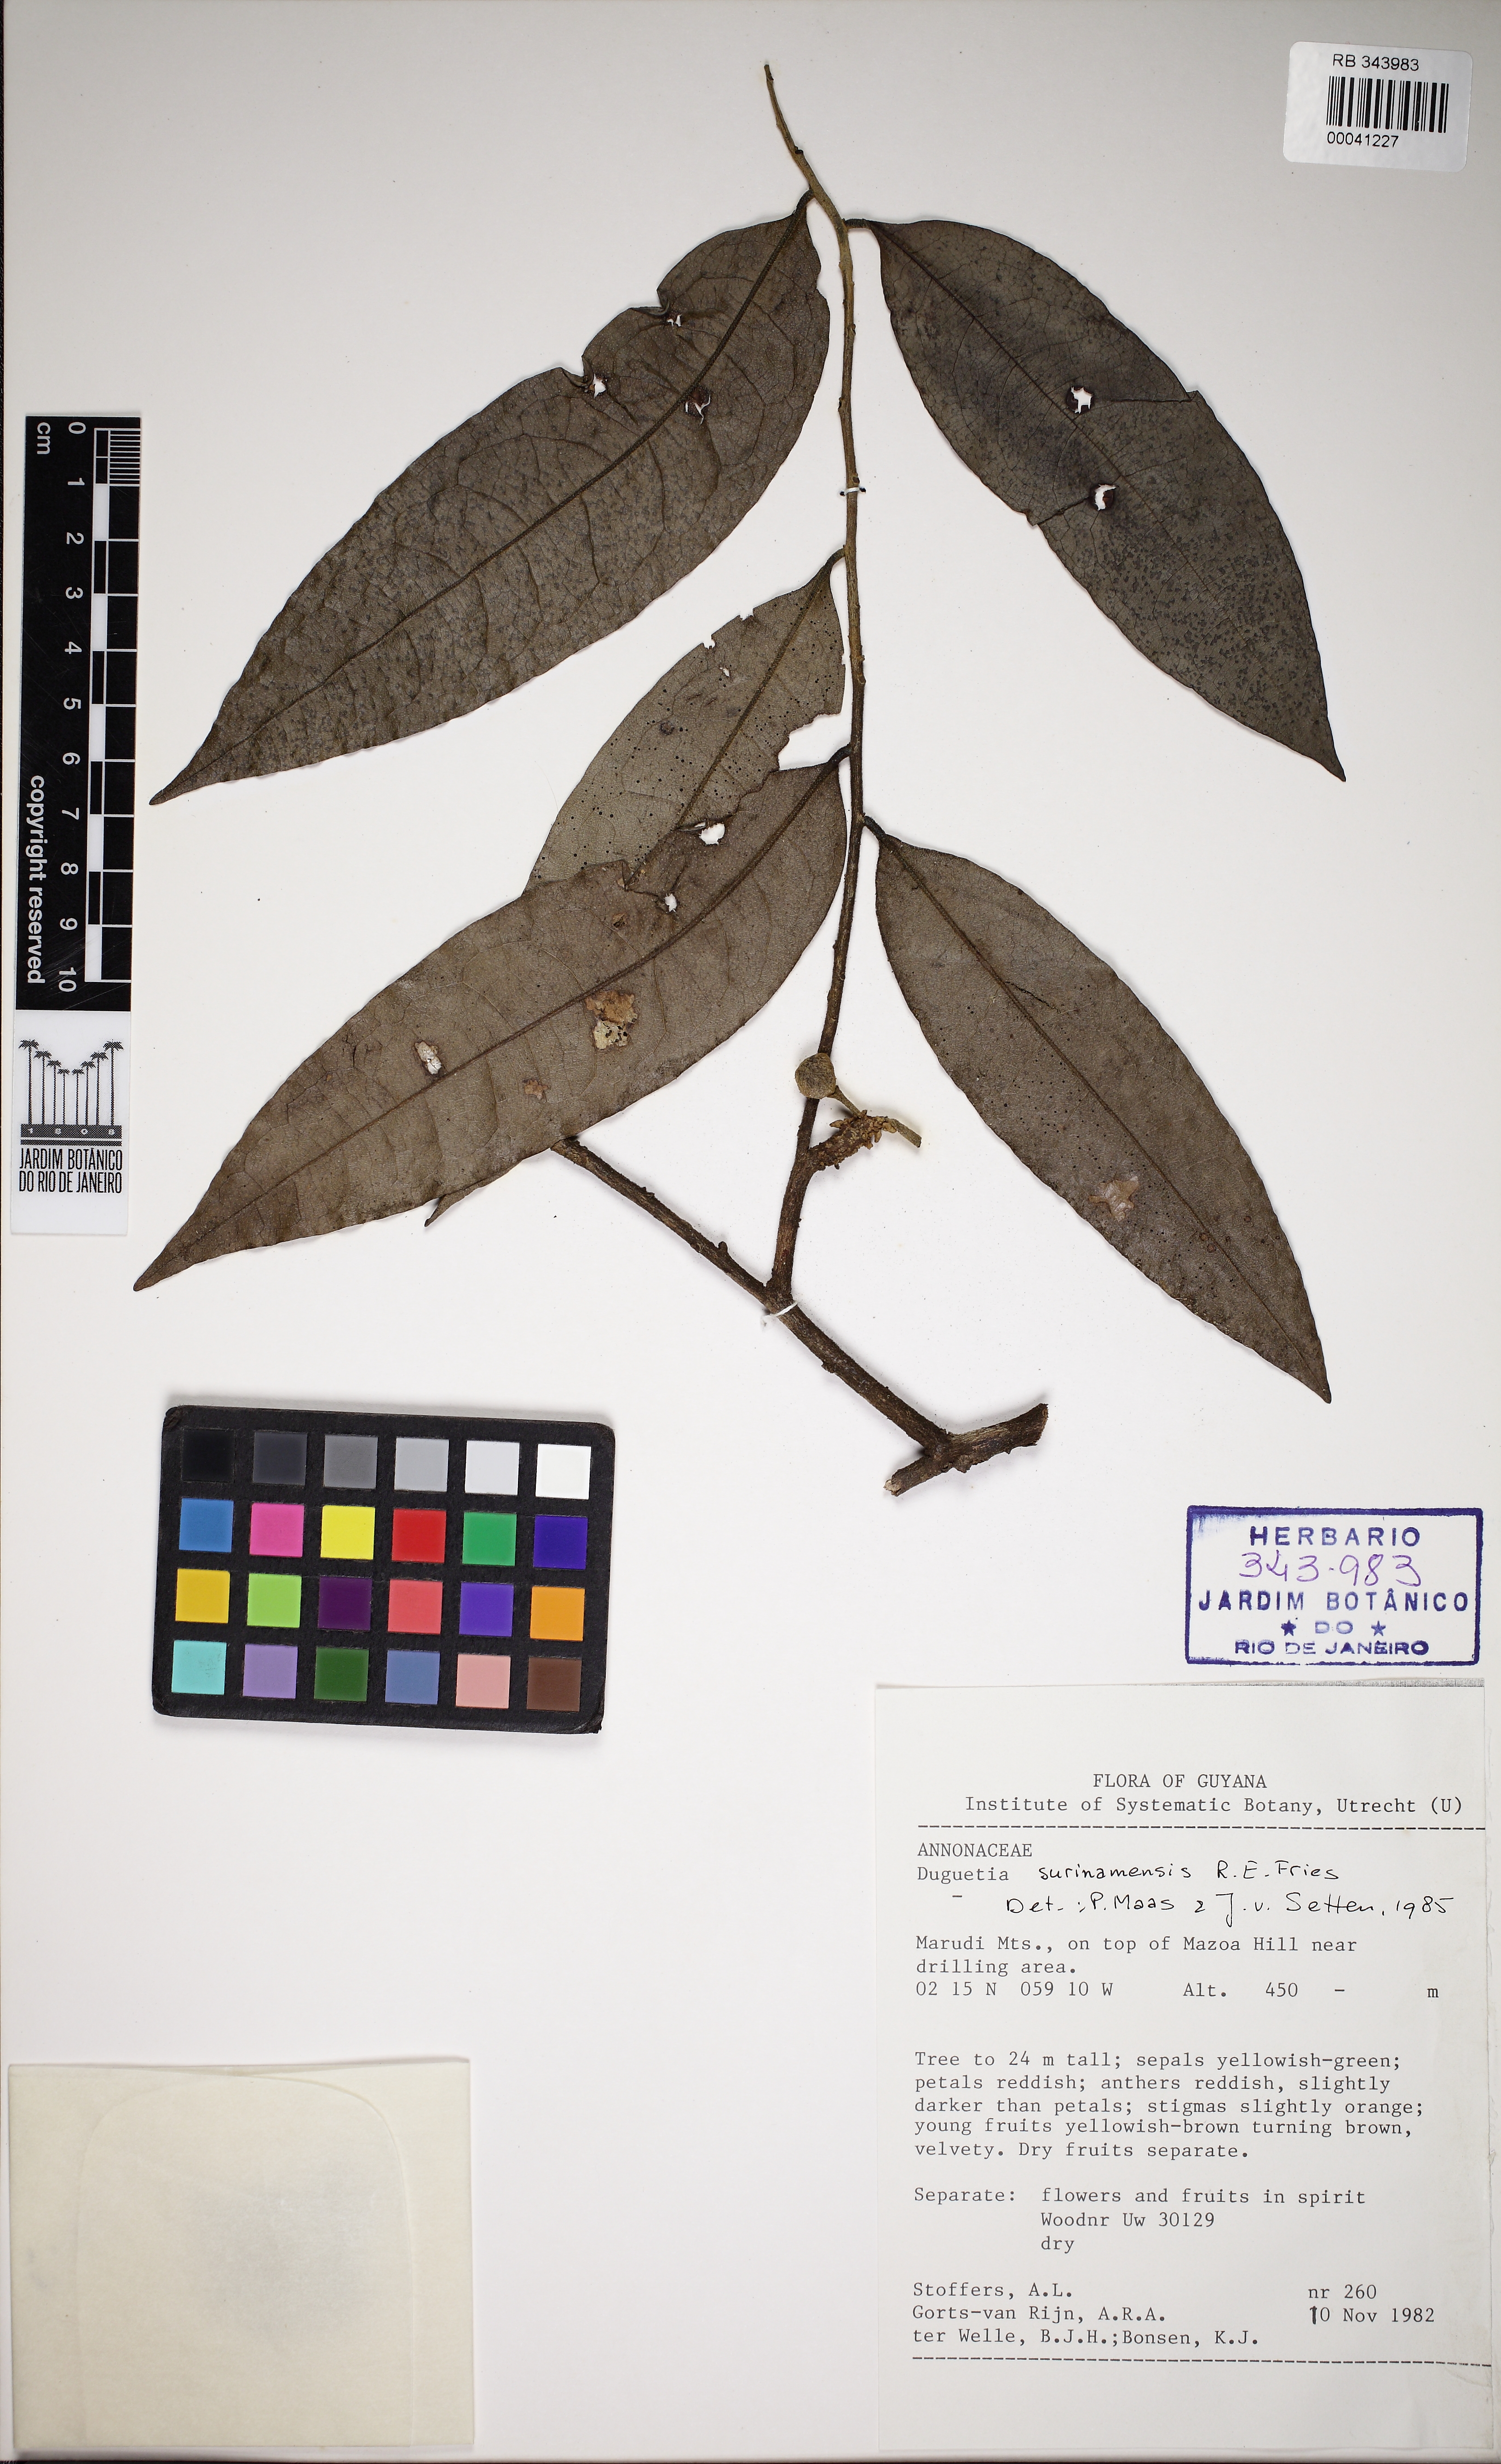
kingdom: Plantae
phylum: Tracheophyta
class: Magnoliopsida
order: Magnoliales
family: Annonaceae
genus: Duguetia
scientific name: Duguetia surinamensis
